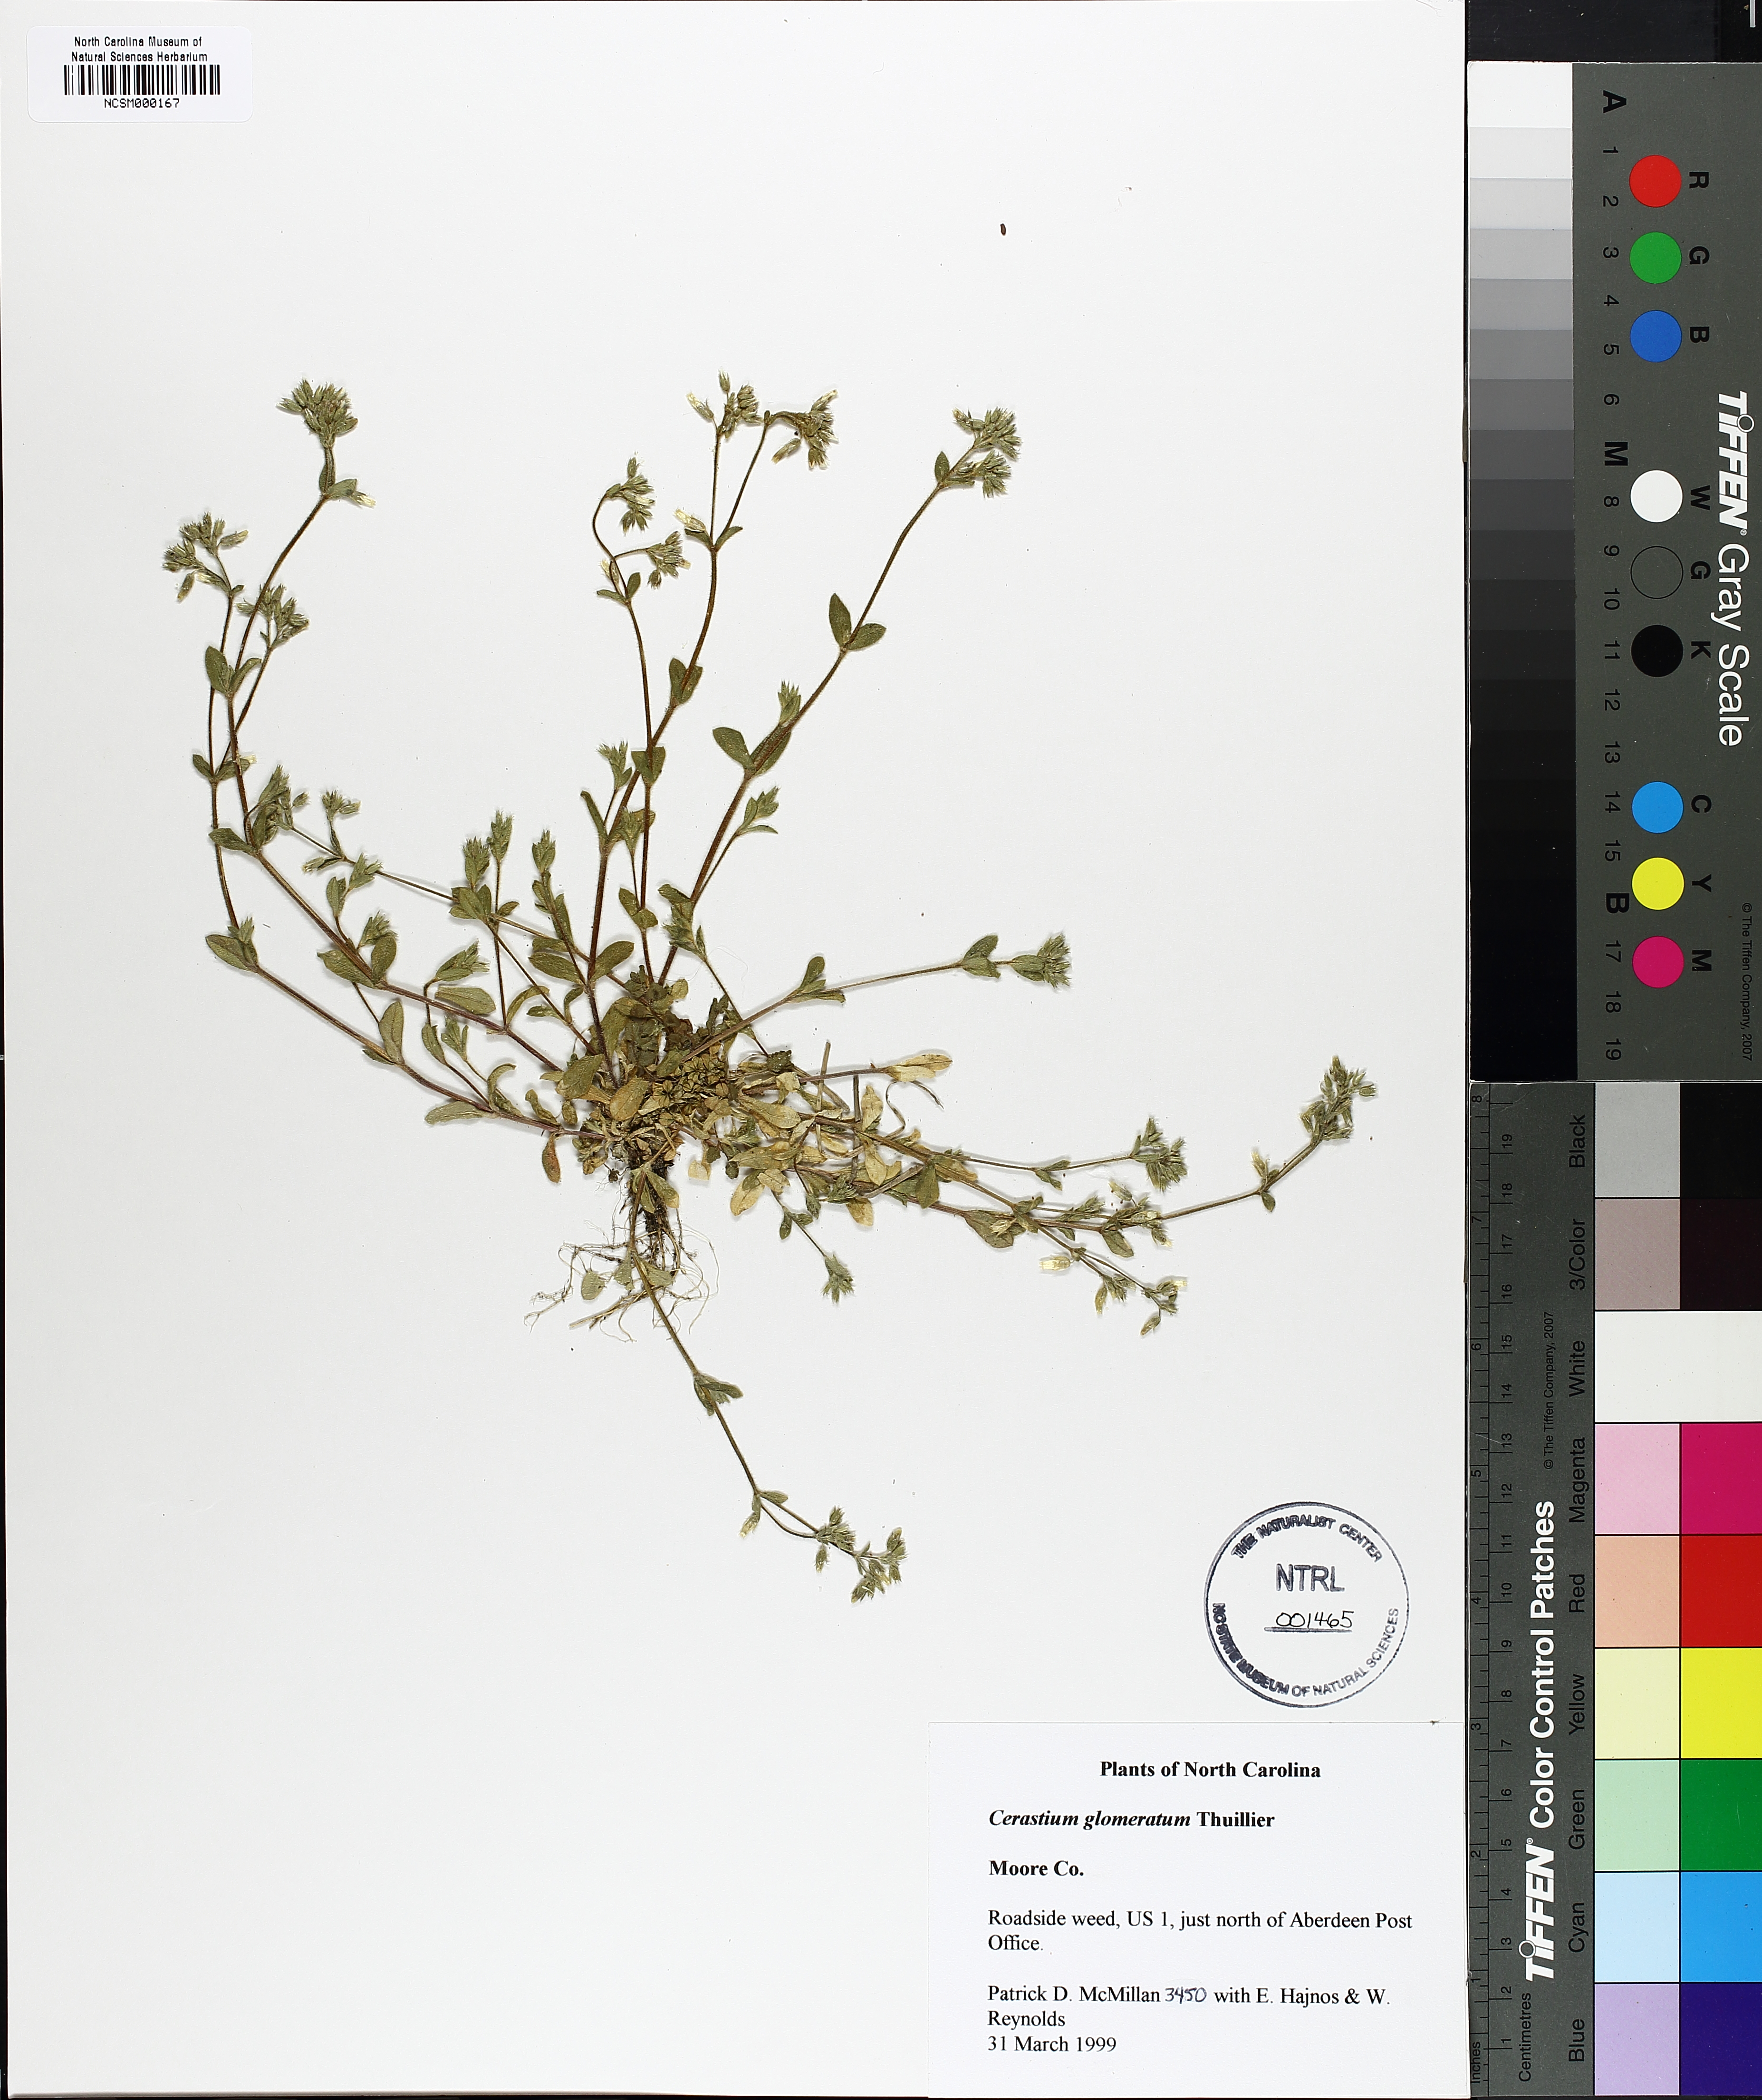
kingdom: Plantae
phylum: Tracheophyta
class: Magnoliopsida
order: Caryophyllales
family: Caryophyllaceae
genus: Cerastium
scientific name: Cerastium glomeratum
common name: Sticky chickweed
